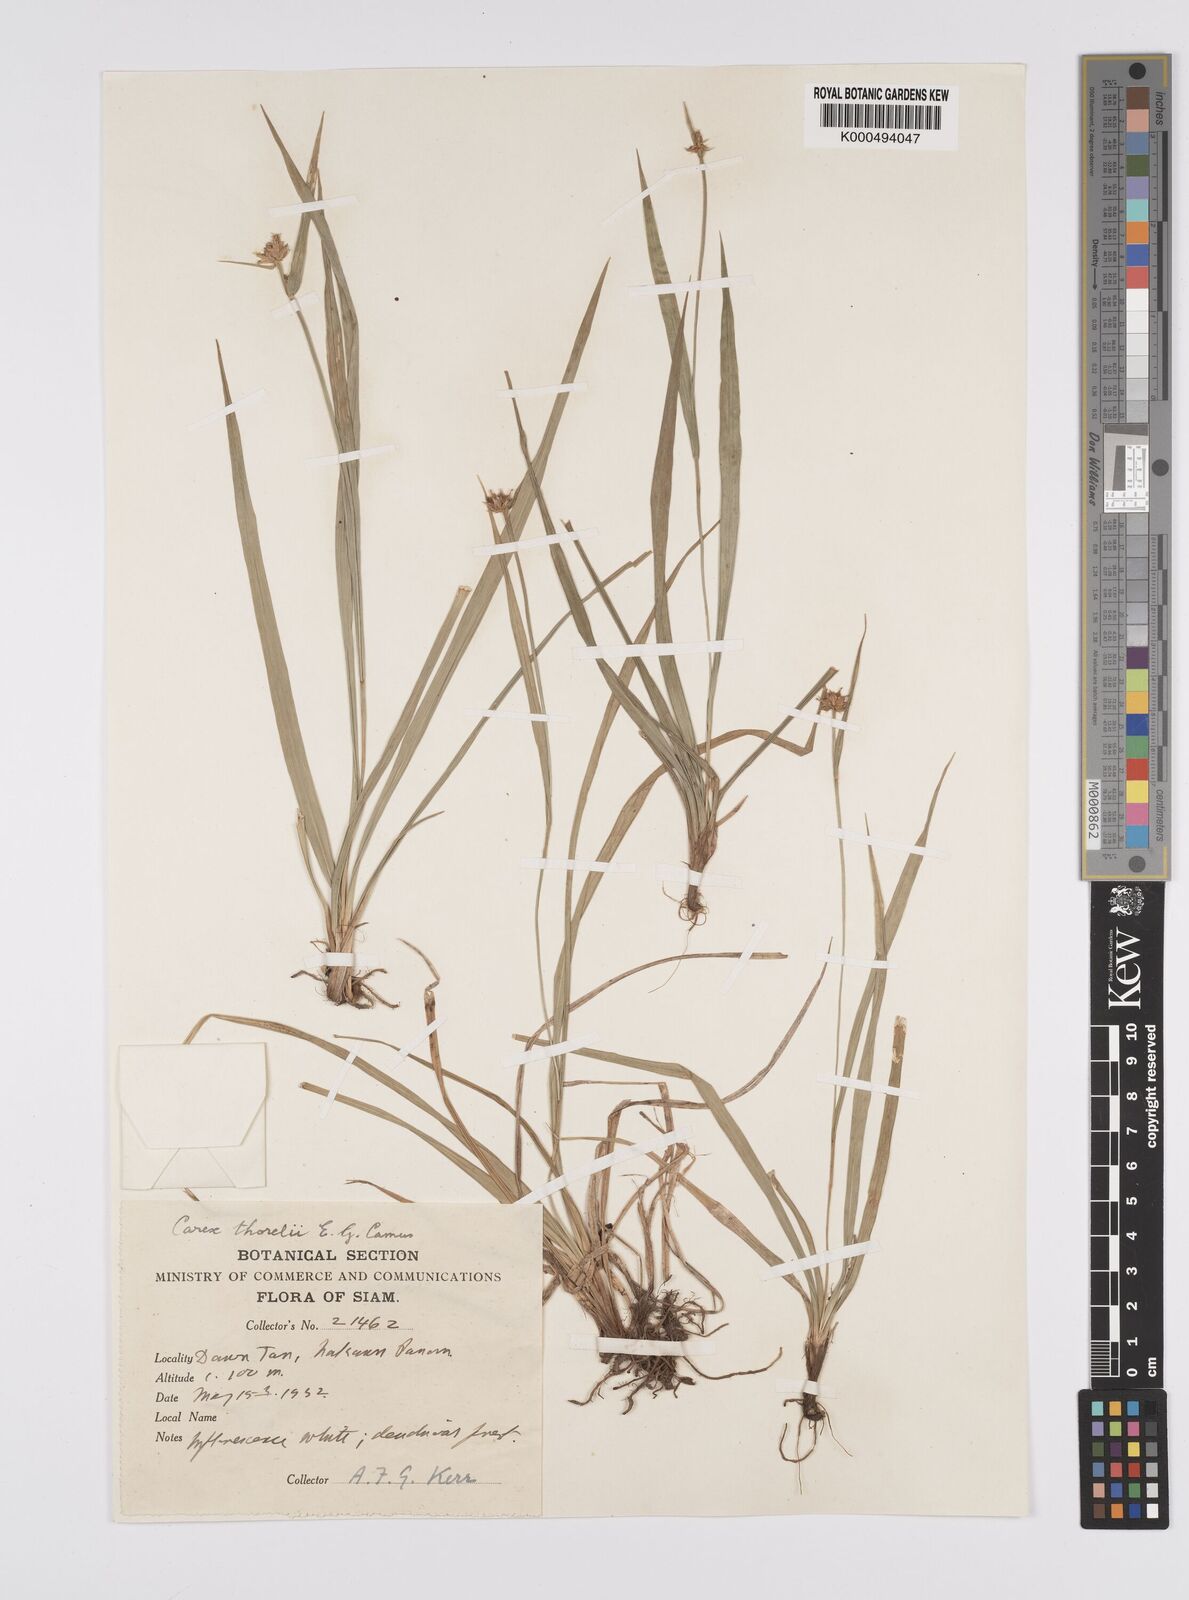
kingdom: Plantae
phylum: Tracheophyta
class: Liliopsida
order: Poales
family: Cyperaceae
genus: Carex
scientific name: Carex tricephala
